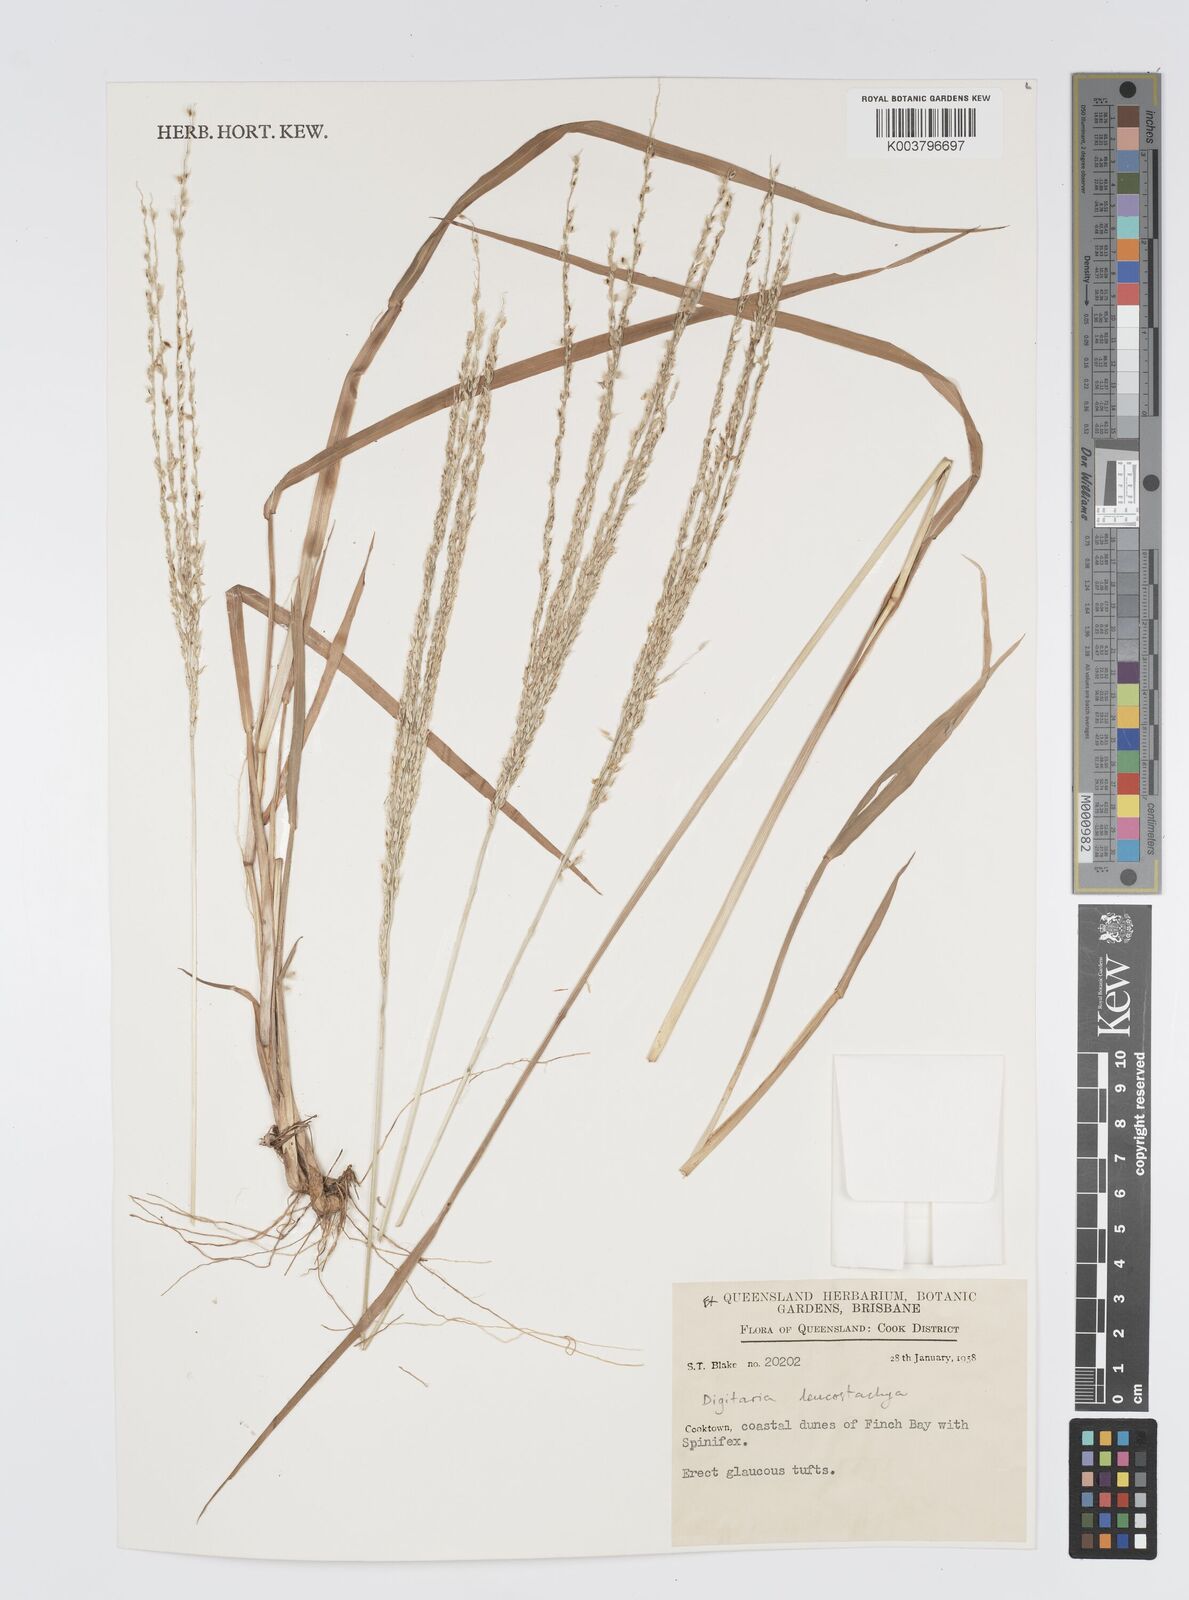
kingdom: Plantae
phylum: Tracheophyta
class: Liliopsida
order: Poales
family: Poaceae
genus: Digitaria
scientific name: Digitaria leucostachya
